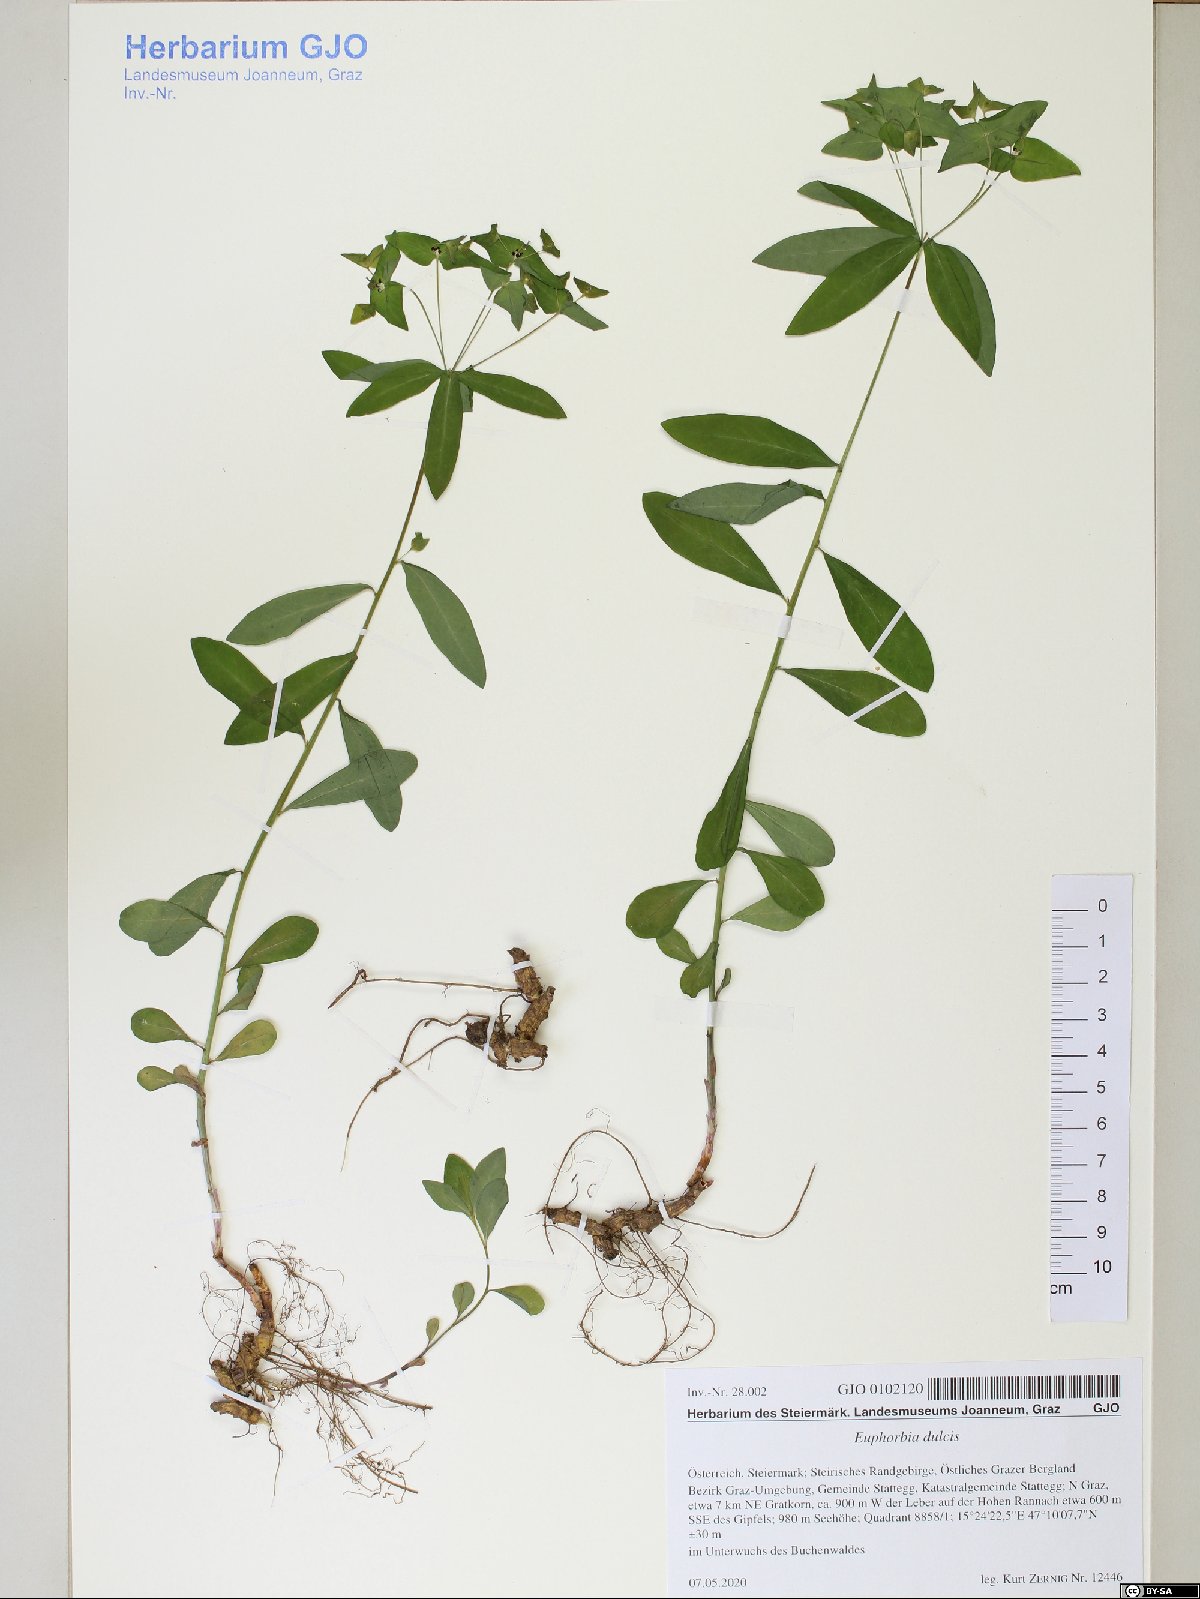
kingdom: Plantae
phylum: Tracheophyta
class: Magnoliopsida
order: Malpighiales
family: Euphorbiaceae
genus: Euphorbia
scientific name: Euphorbia dulcis
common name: Sweet spurge
